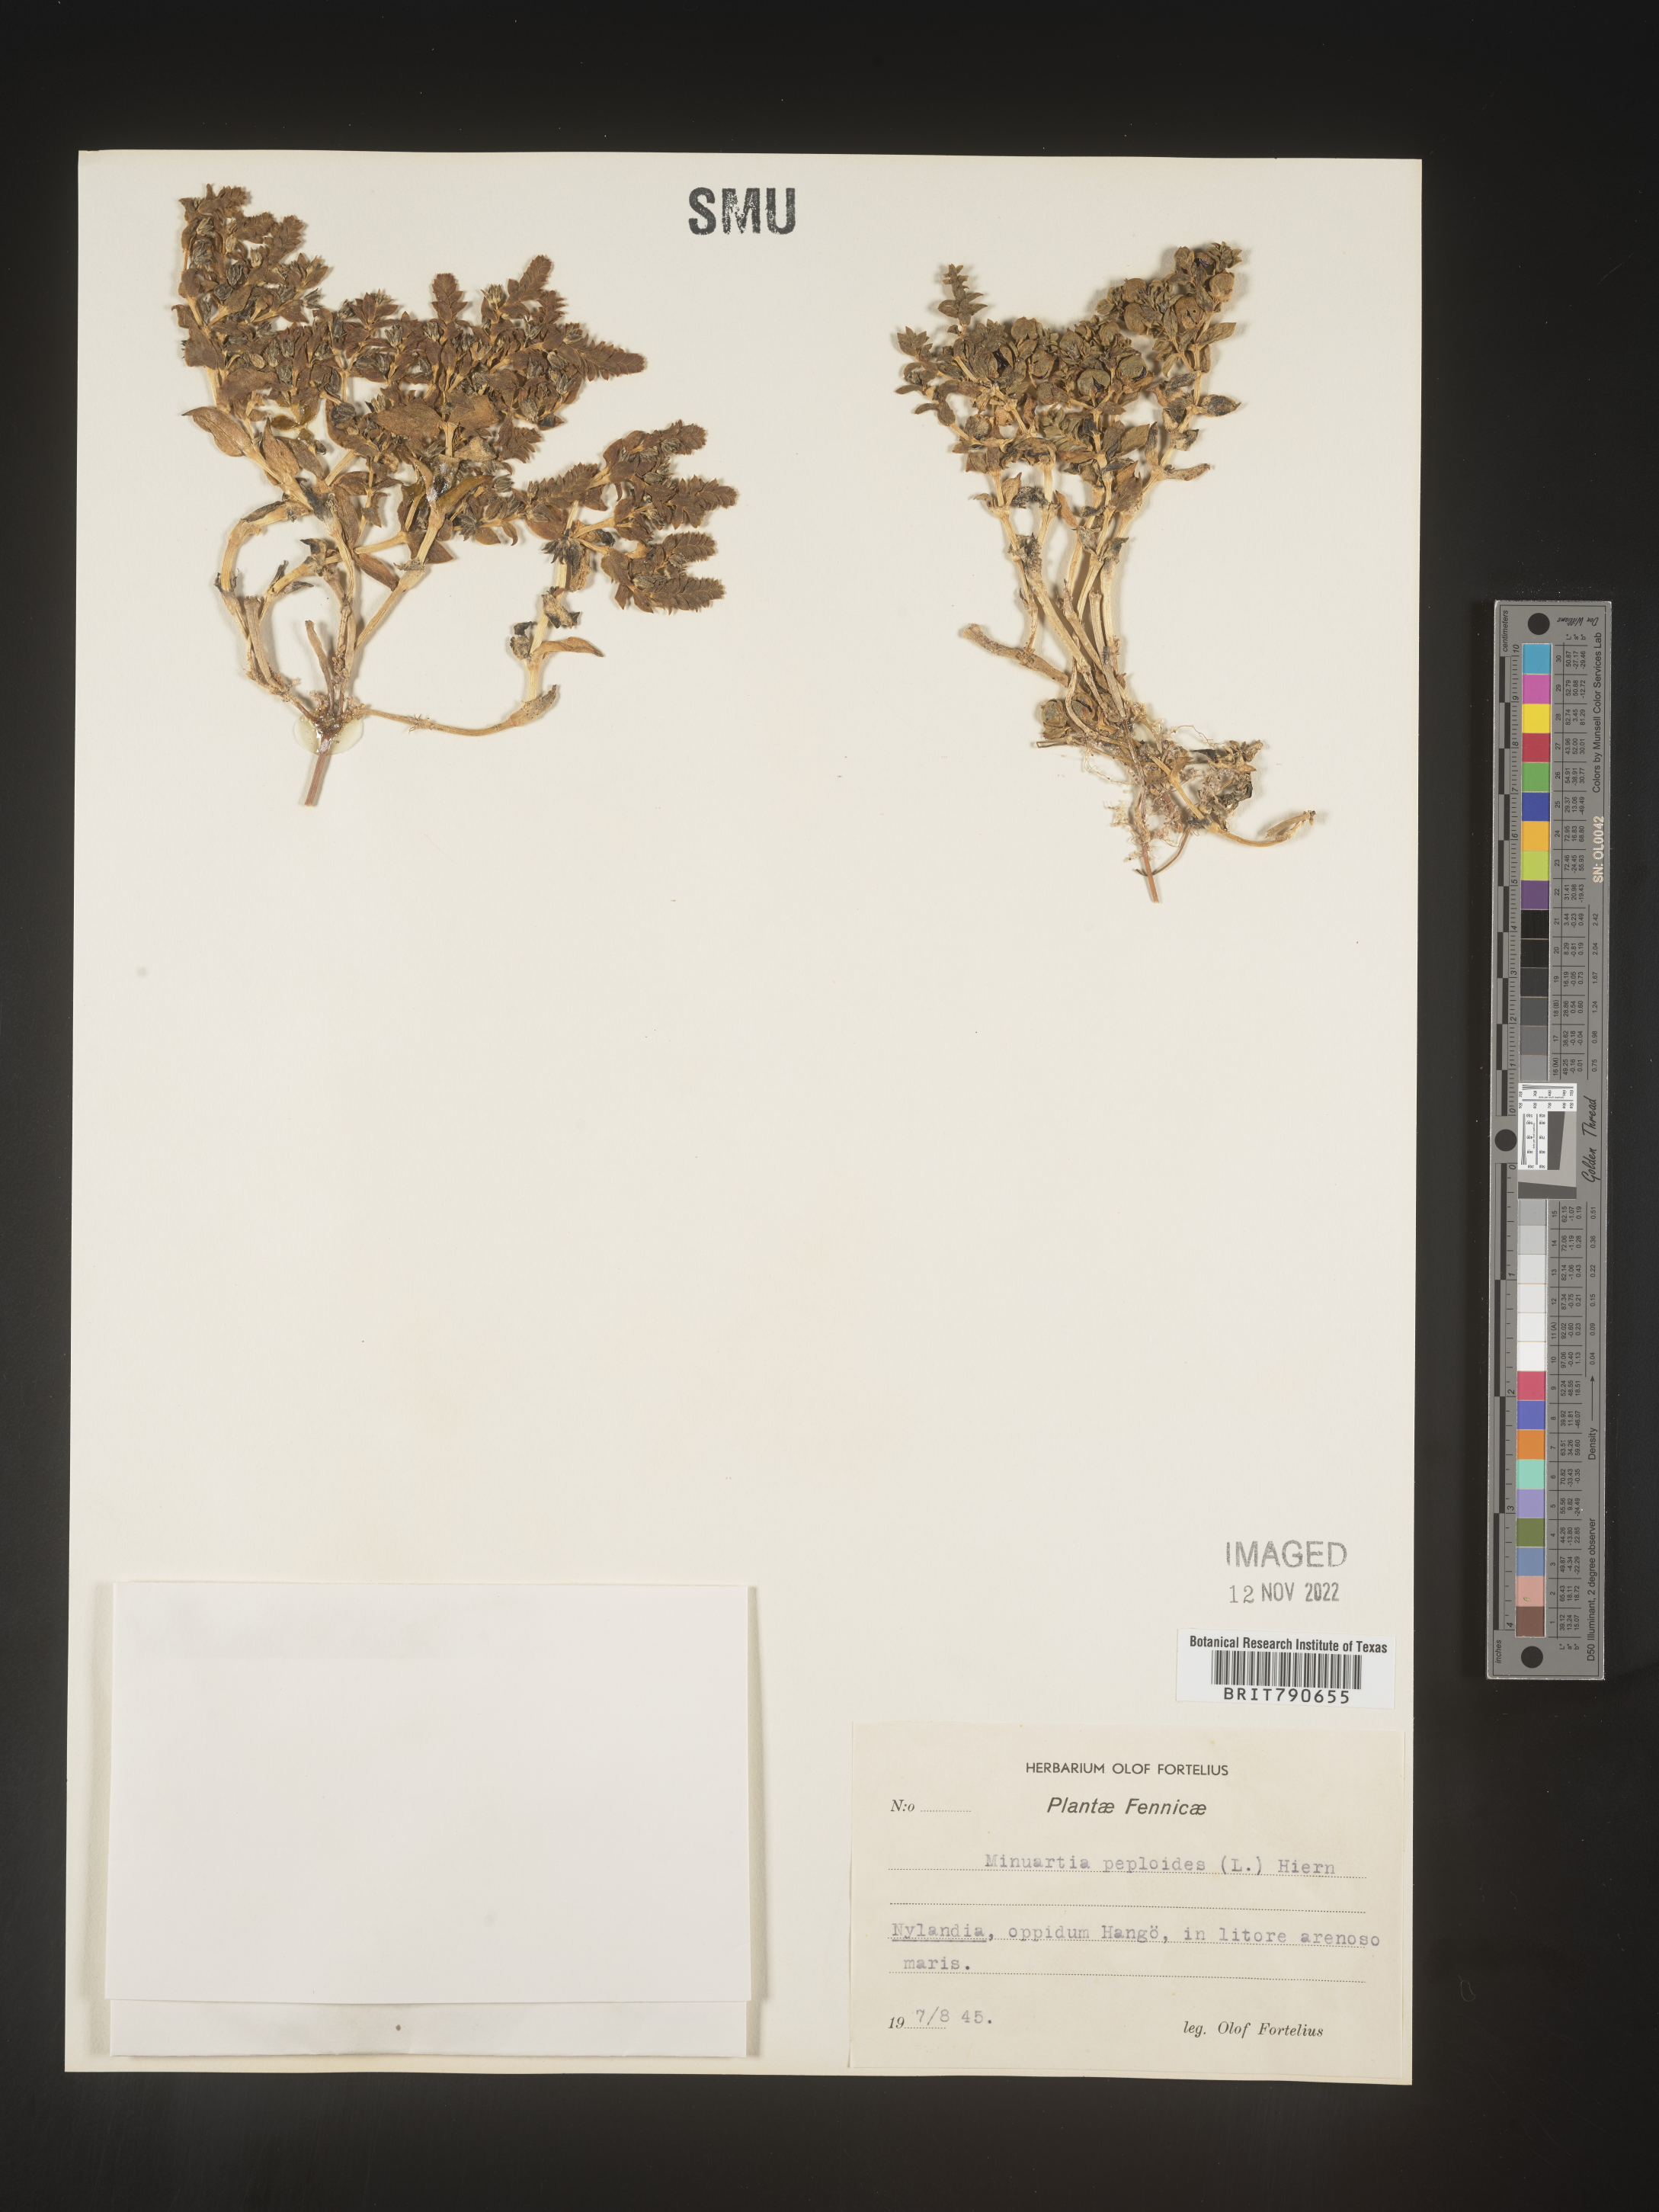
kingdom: Plantae
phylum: Tracheophyta
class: Magnoliopsida
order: Malvales
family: Malvaceae
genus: Clappertonia
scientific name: Clappertonia
